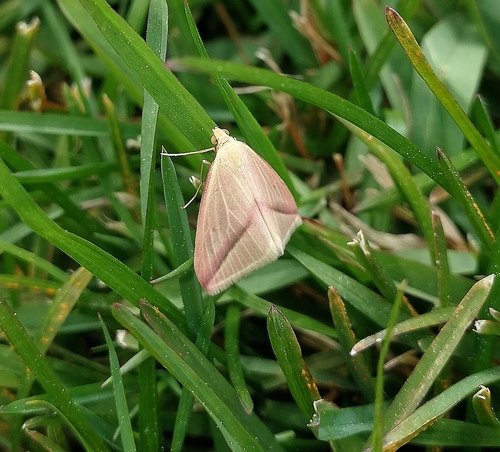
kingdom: Animalia
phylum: Arthropoda
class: Insecta
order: Lepidoptera
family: Geometridae
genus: Rhodometra
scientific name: Rhodometra sacraria
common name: Vestal
